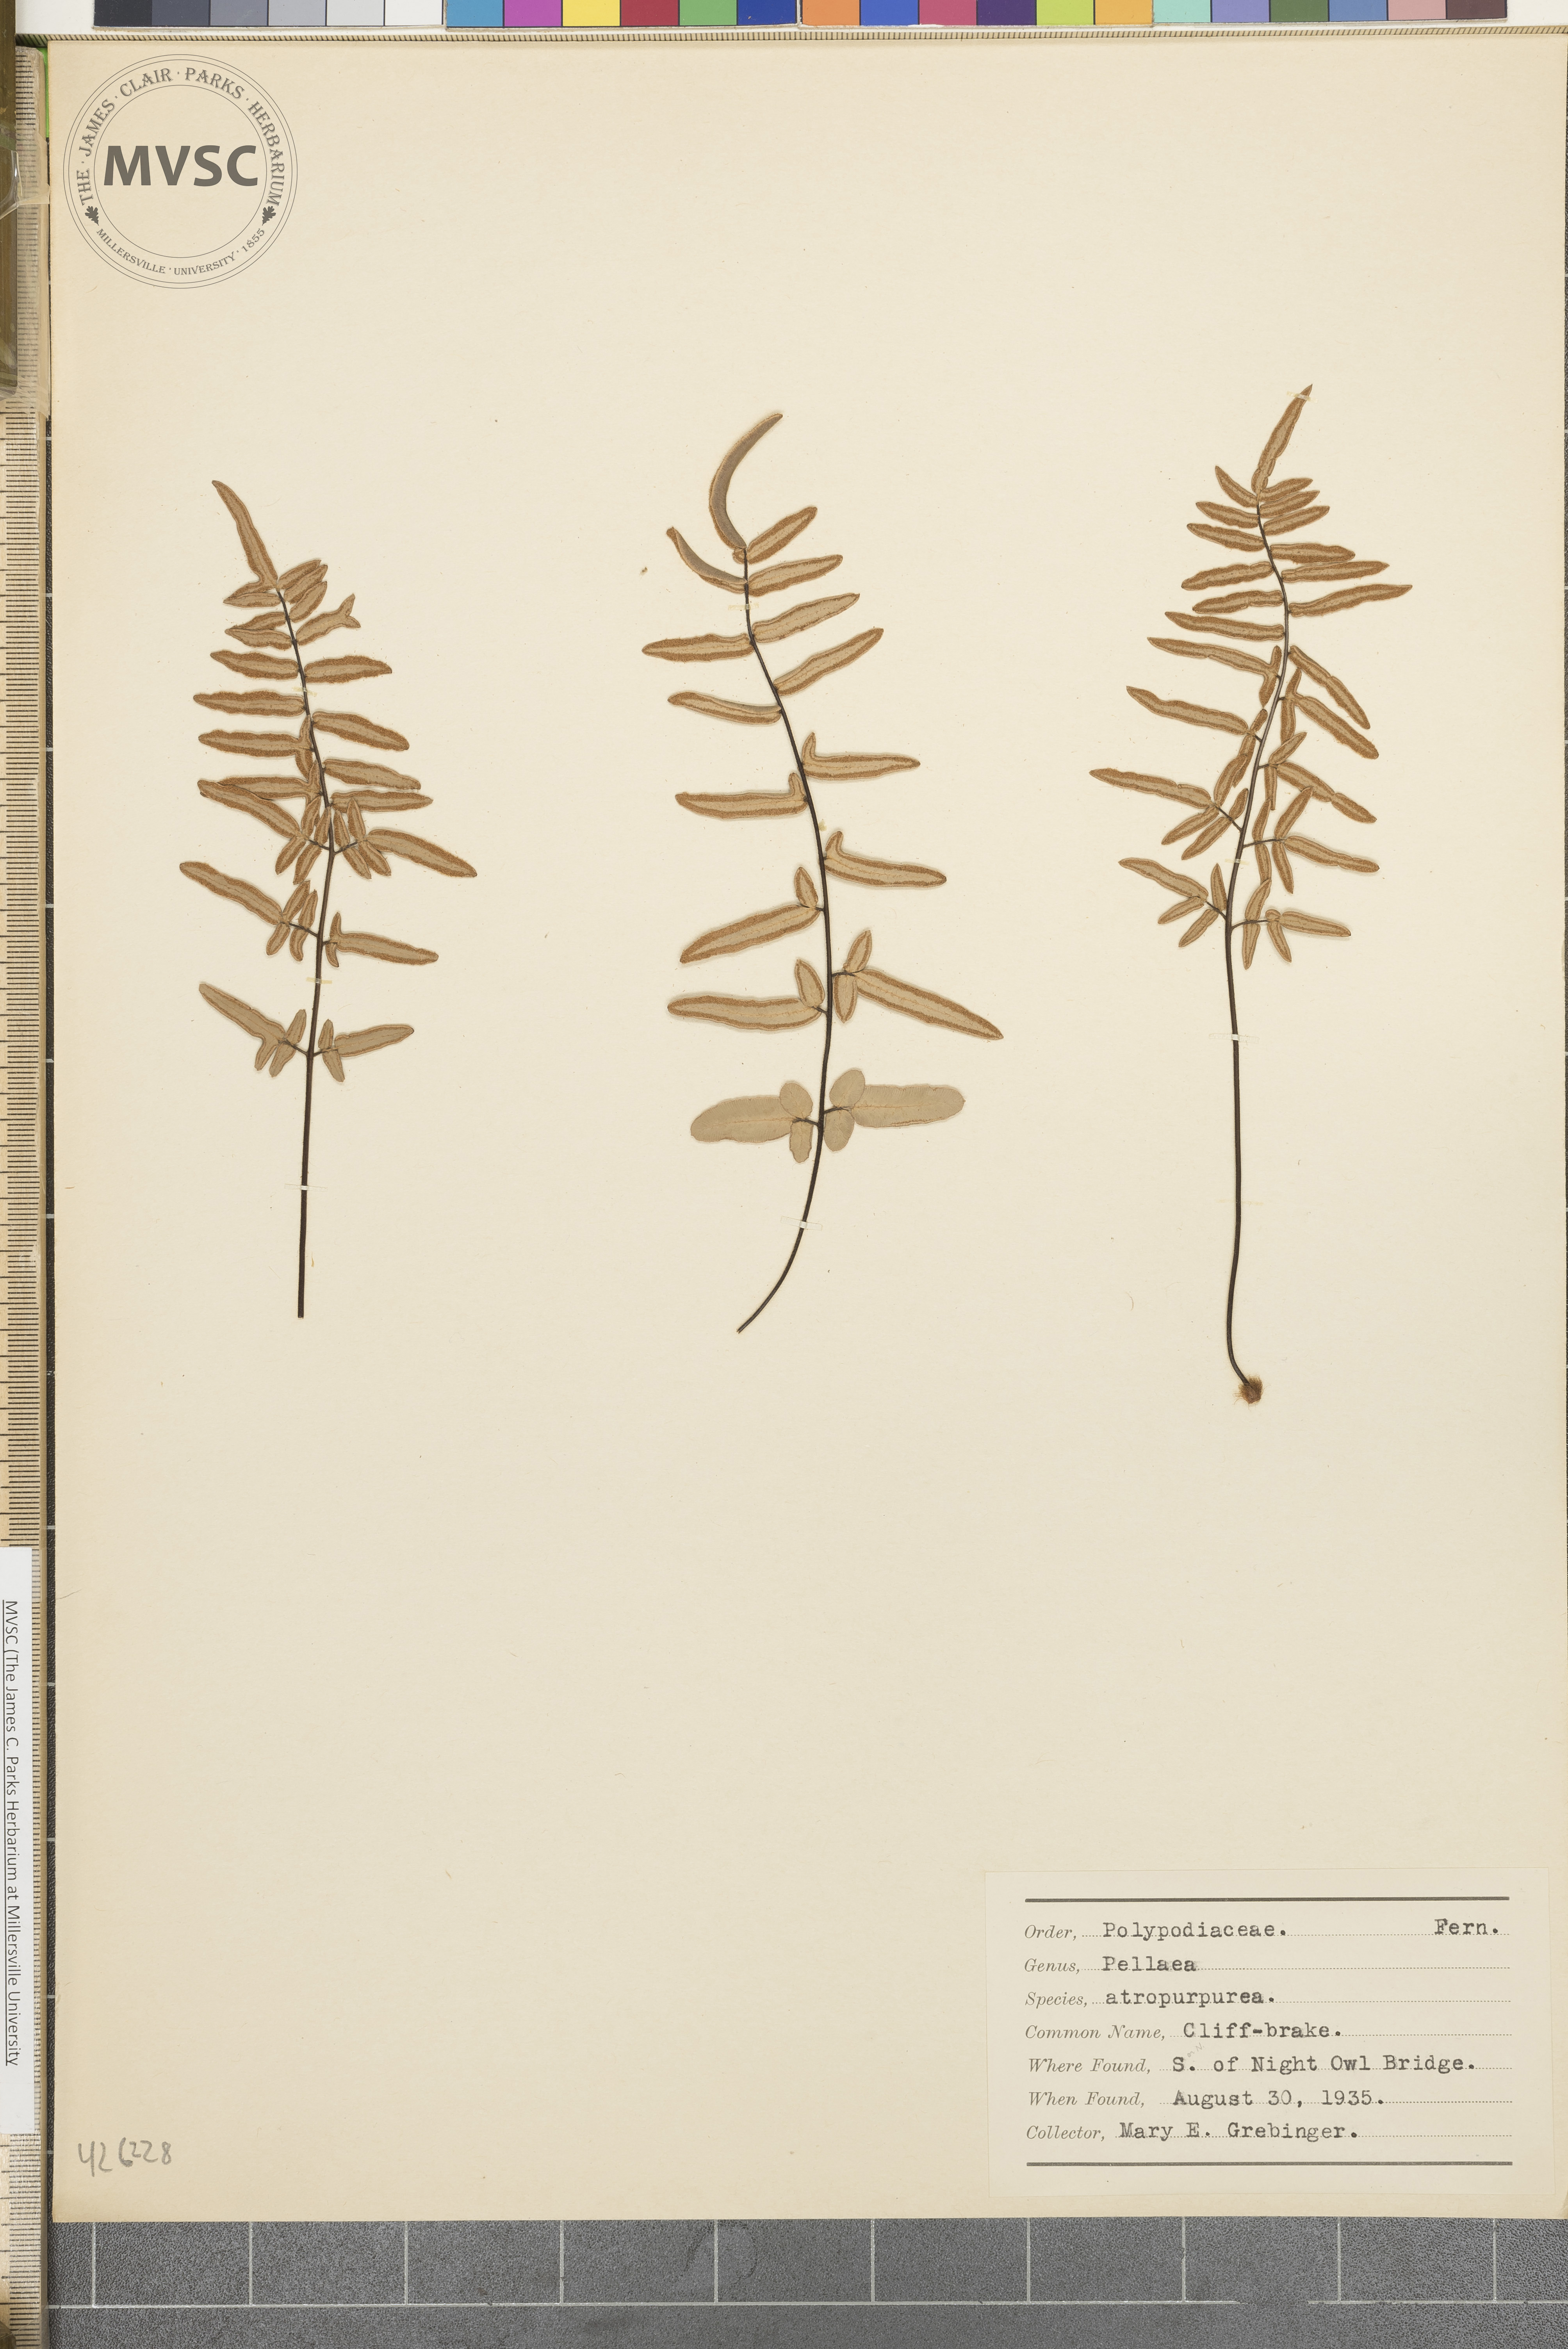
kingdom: Plantae
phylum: Tracheophyta
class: Polypodiopsida
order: Polypodiales
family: Pteridaceae
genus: Pellaea
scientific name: Pellaea atropurpurea
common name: Cliff-brake
